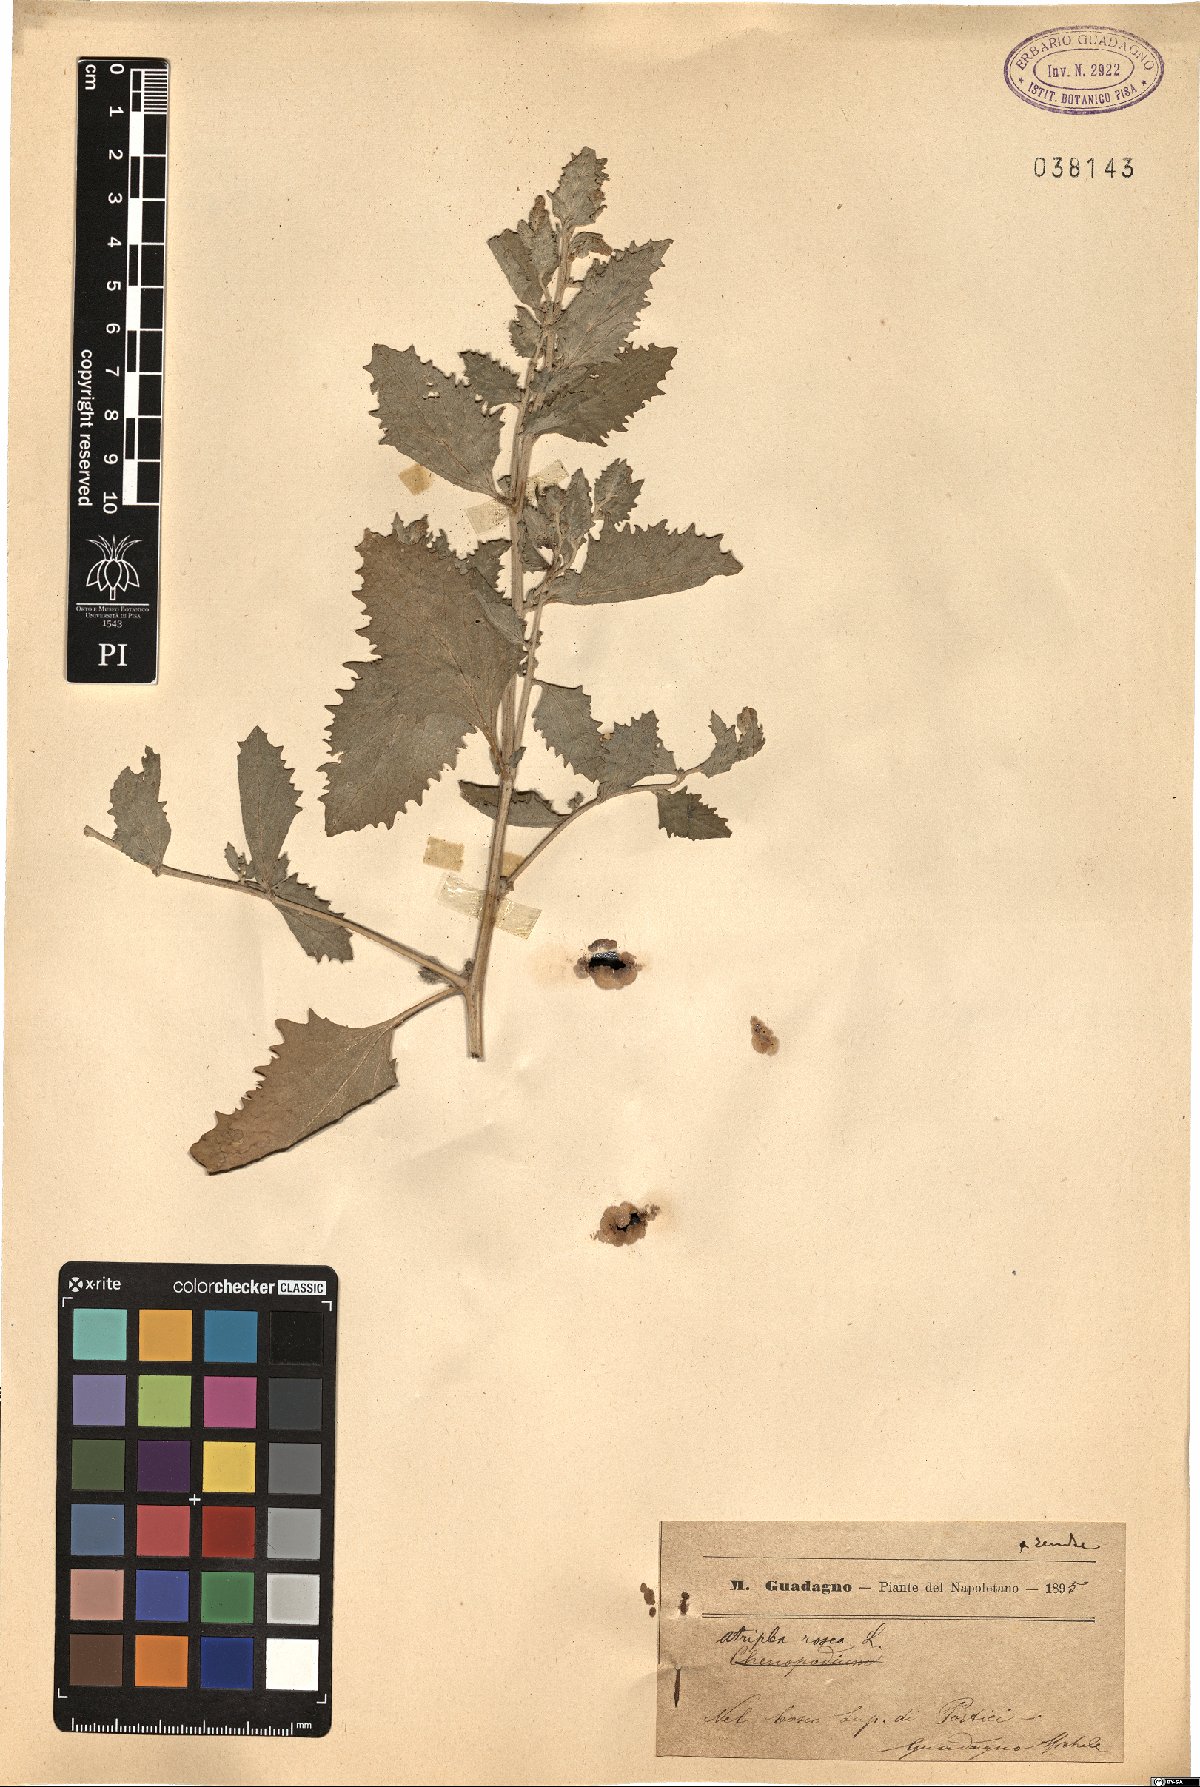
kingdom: Plantae
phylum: Tracheophyta
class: Magnoliopsida
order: Caryophyllales
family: Amaranthaceae
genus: Atriplex
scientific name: Atriplex rosea
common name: Tumbling saltweed
